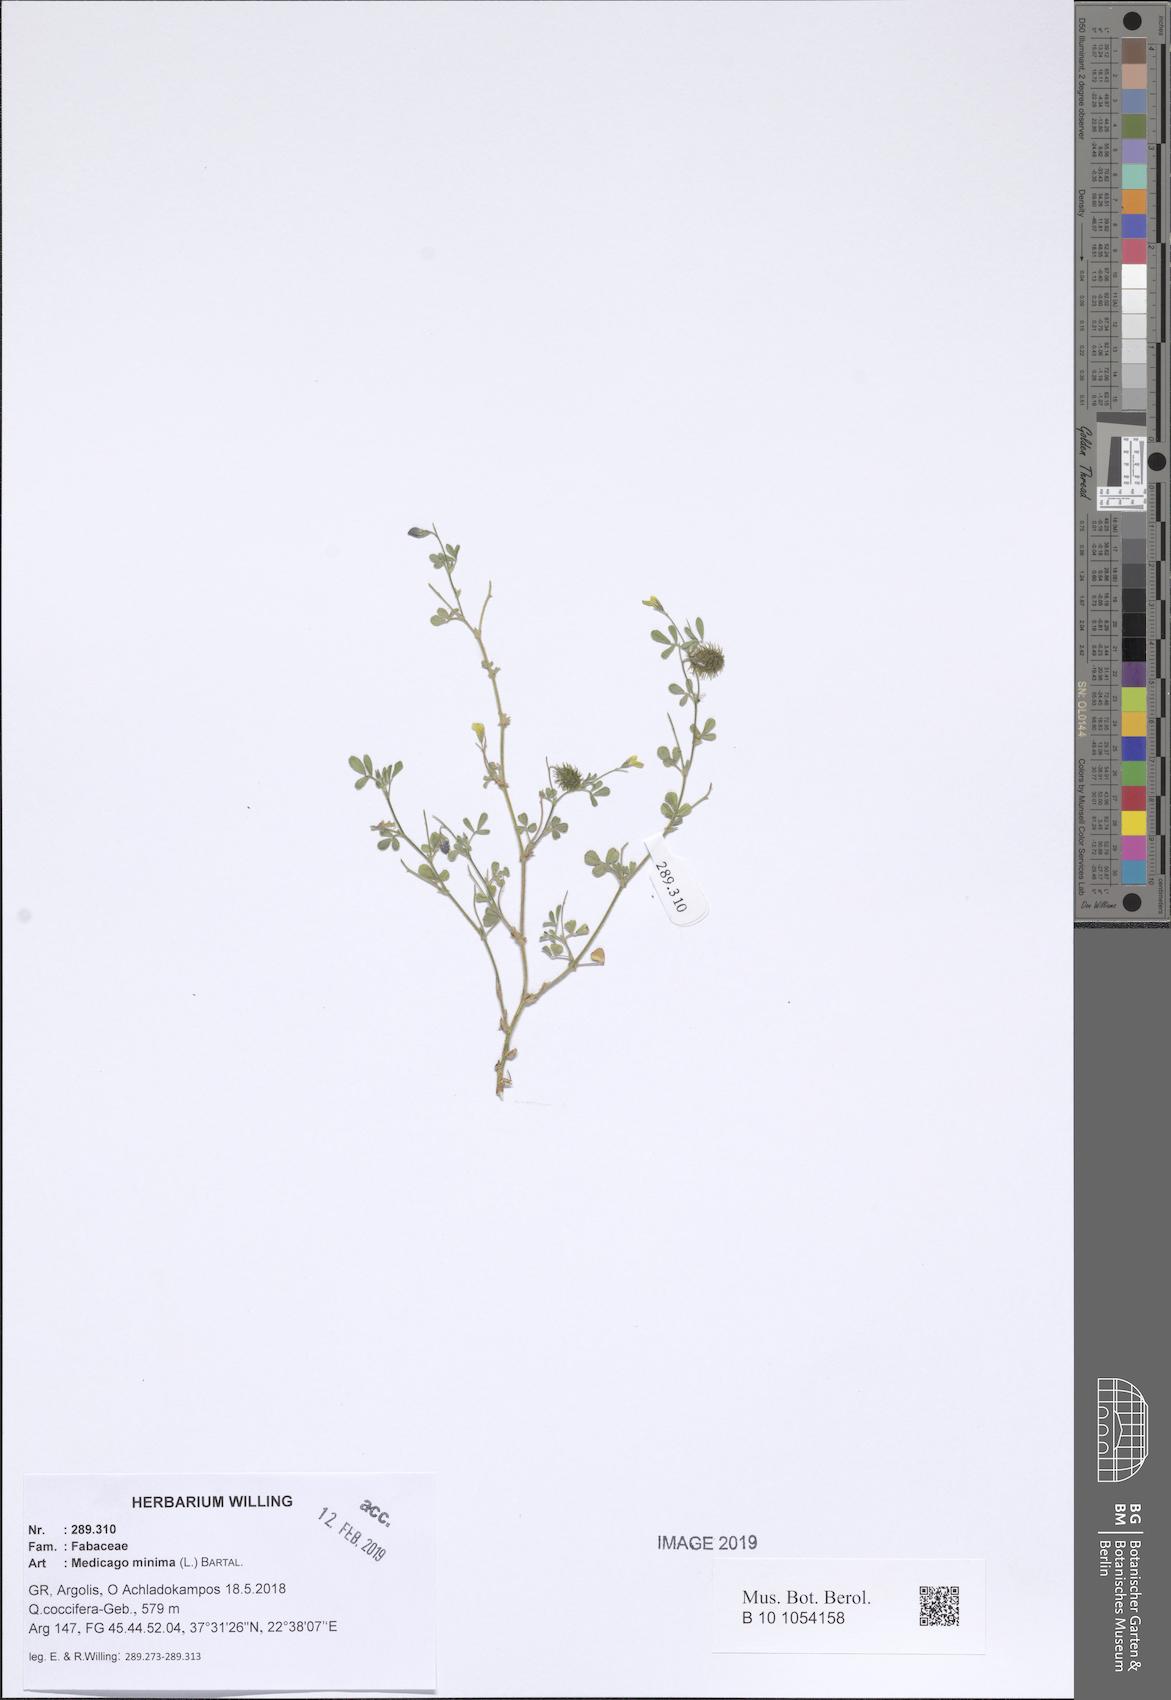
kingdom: Plantae
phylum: Tracheophyta
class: Magnoliopsida
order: Fabales
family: Fabaceae
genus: Medicago
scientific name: Medicago minima
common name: Little bur-clover
